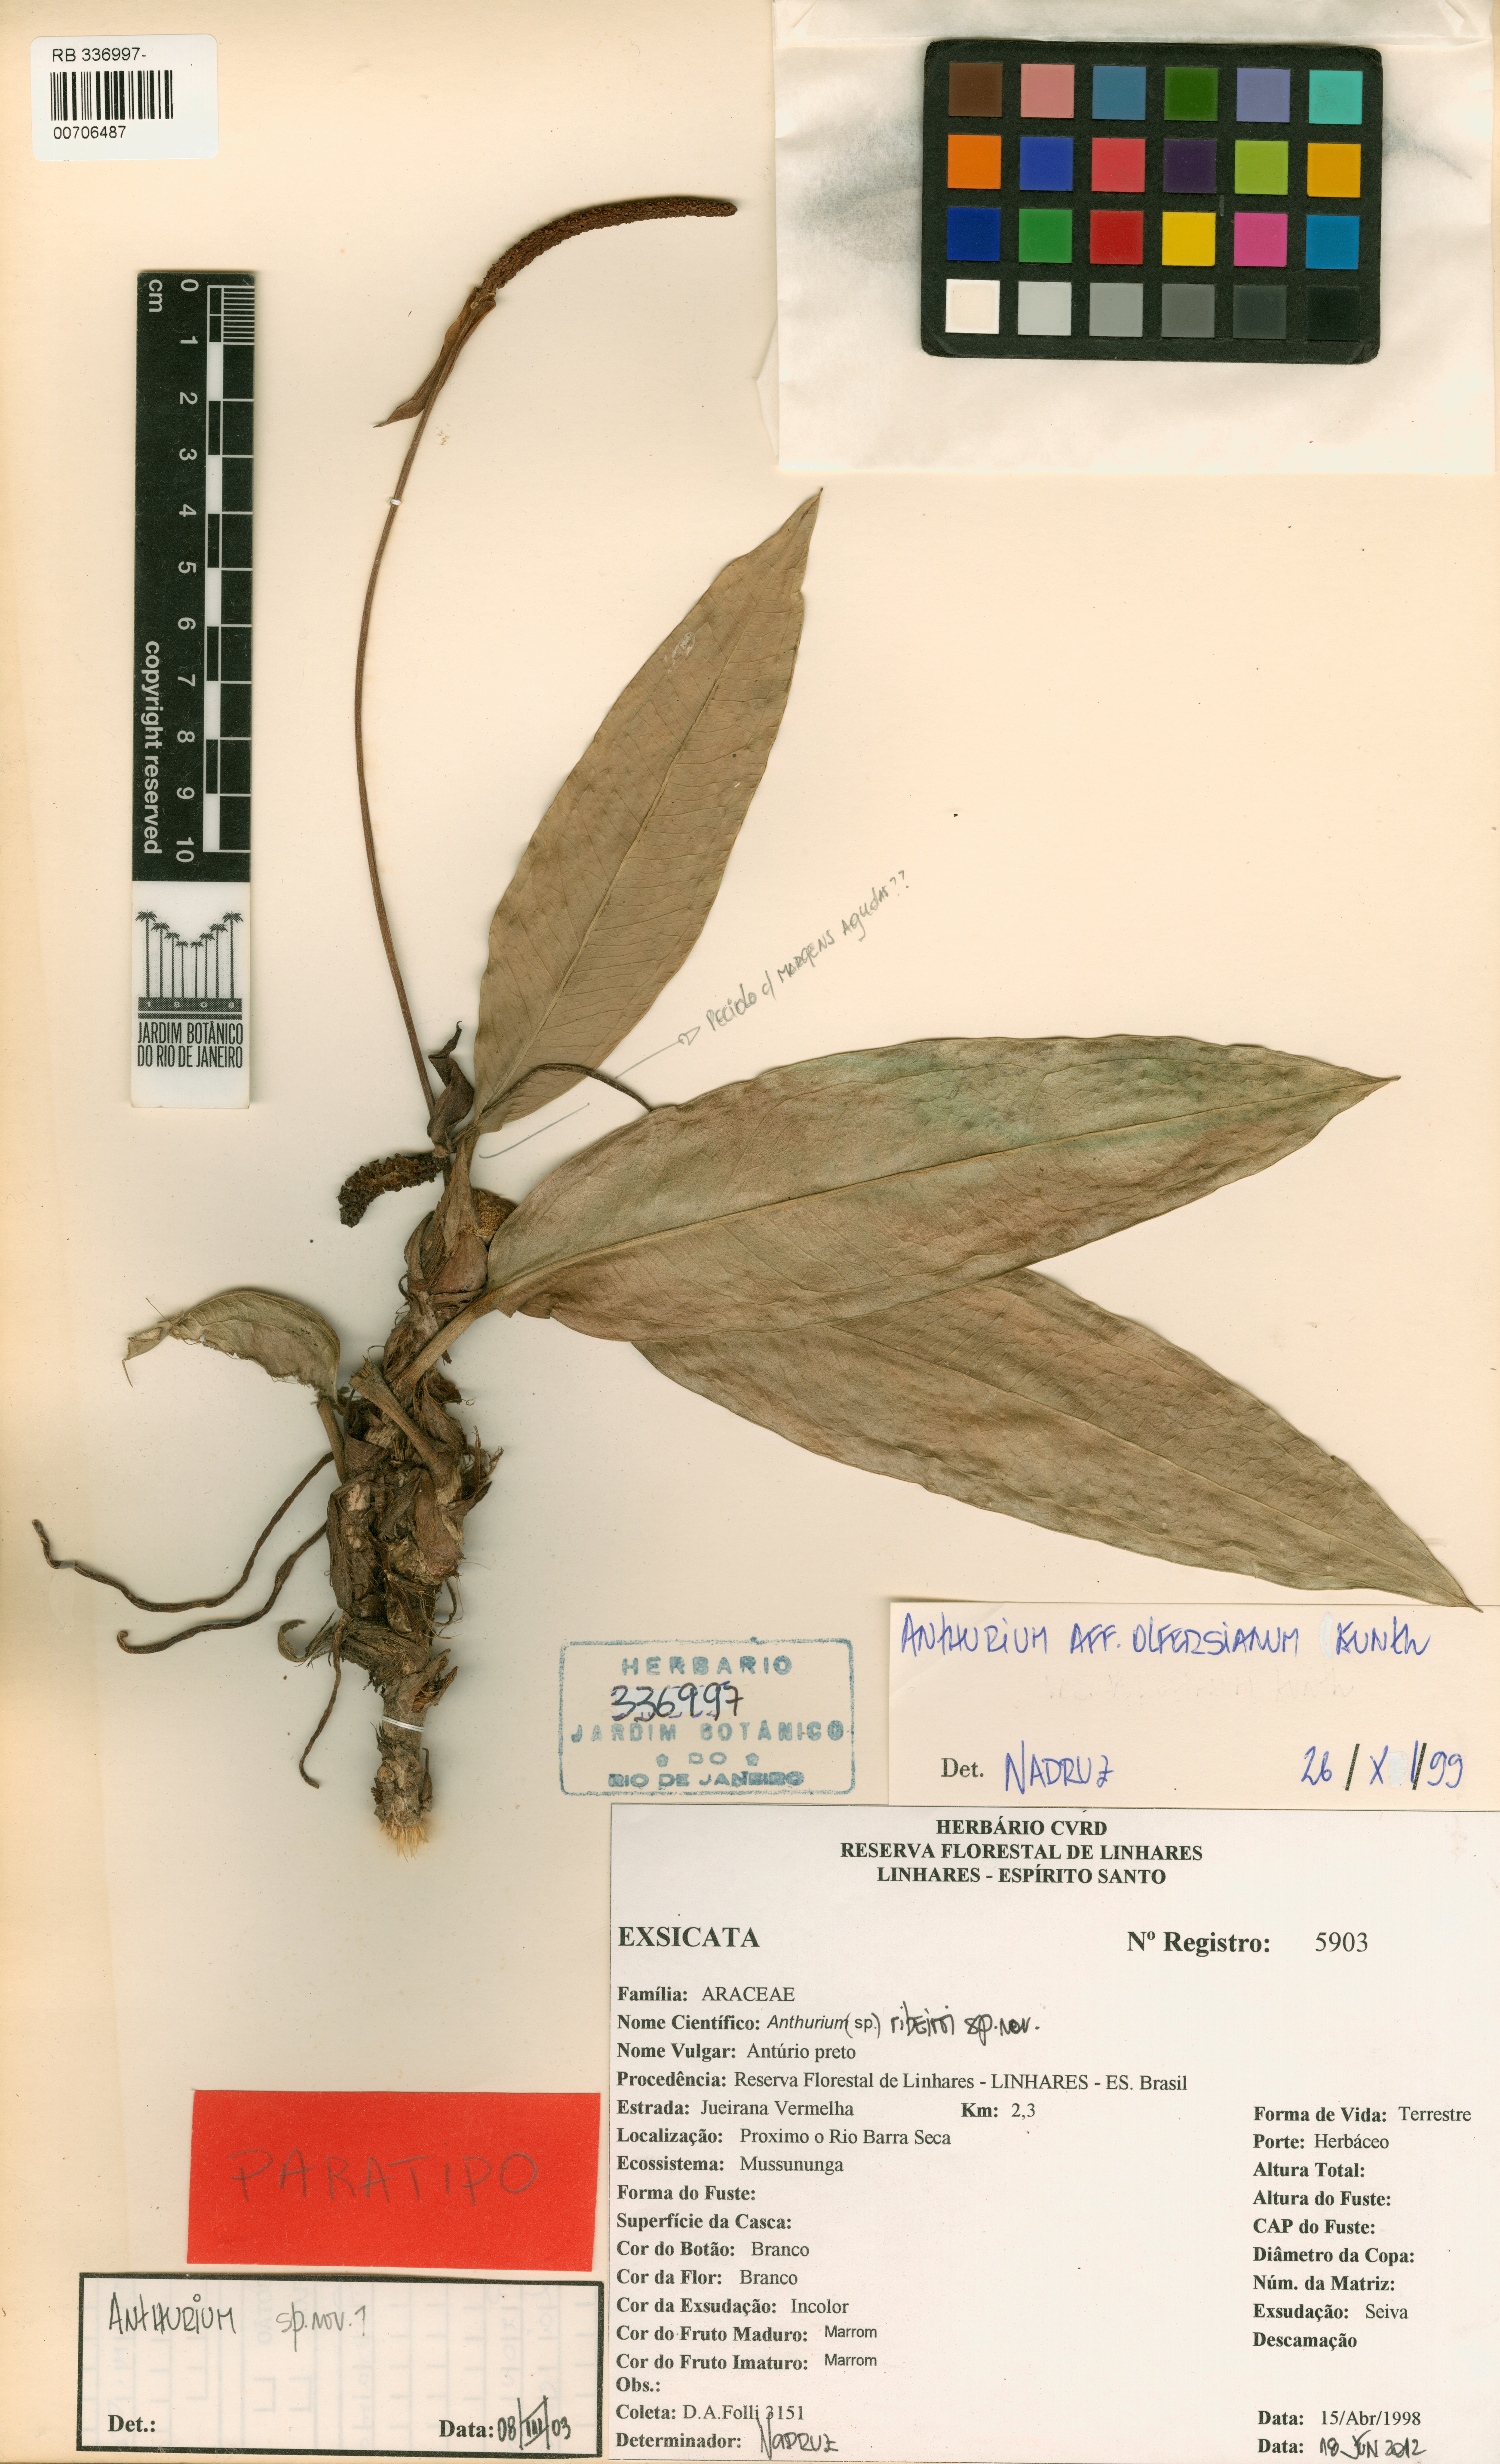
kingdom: Plantae
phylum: Tracheophyta
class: Liliopsida
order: Alismatales
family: Araceae
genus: Anthurium
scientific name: Anthurium ribeiroi
